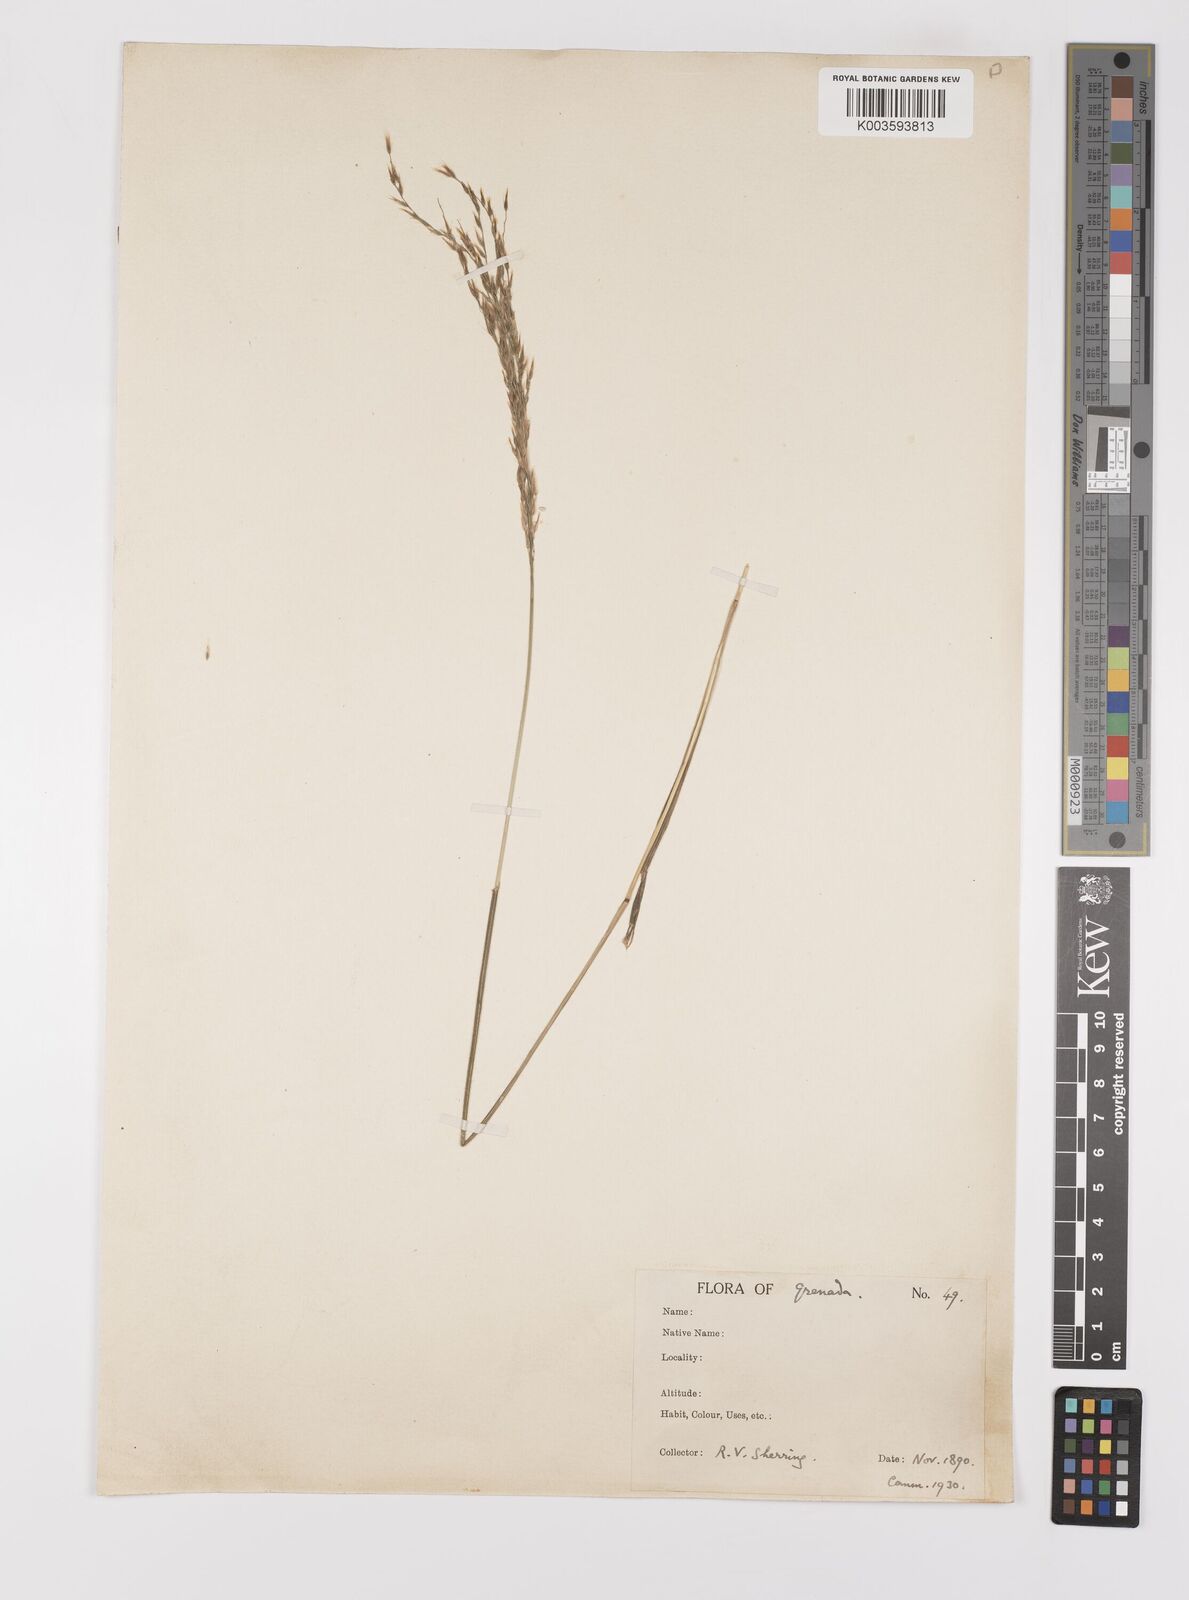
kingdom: Plantae
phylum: Tracheophyta
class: Liliopsida
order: Poales
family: Poaceae
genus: Digitaria
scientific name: Digitaria insularis
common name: Sourgrass
